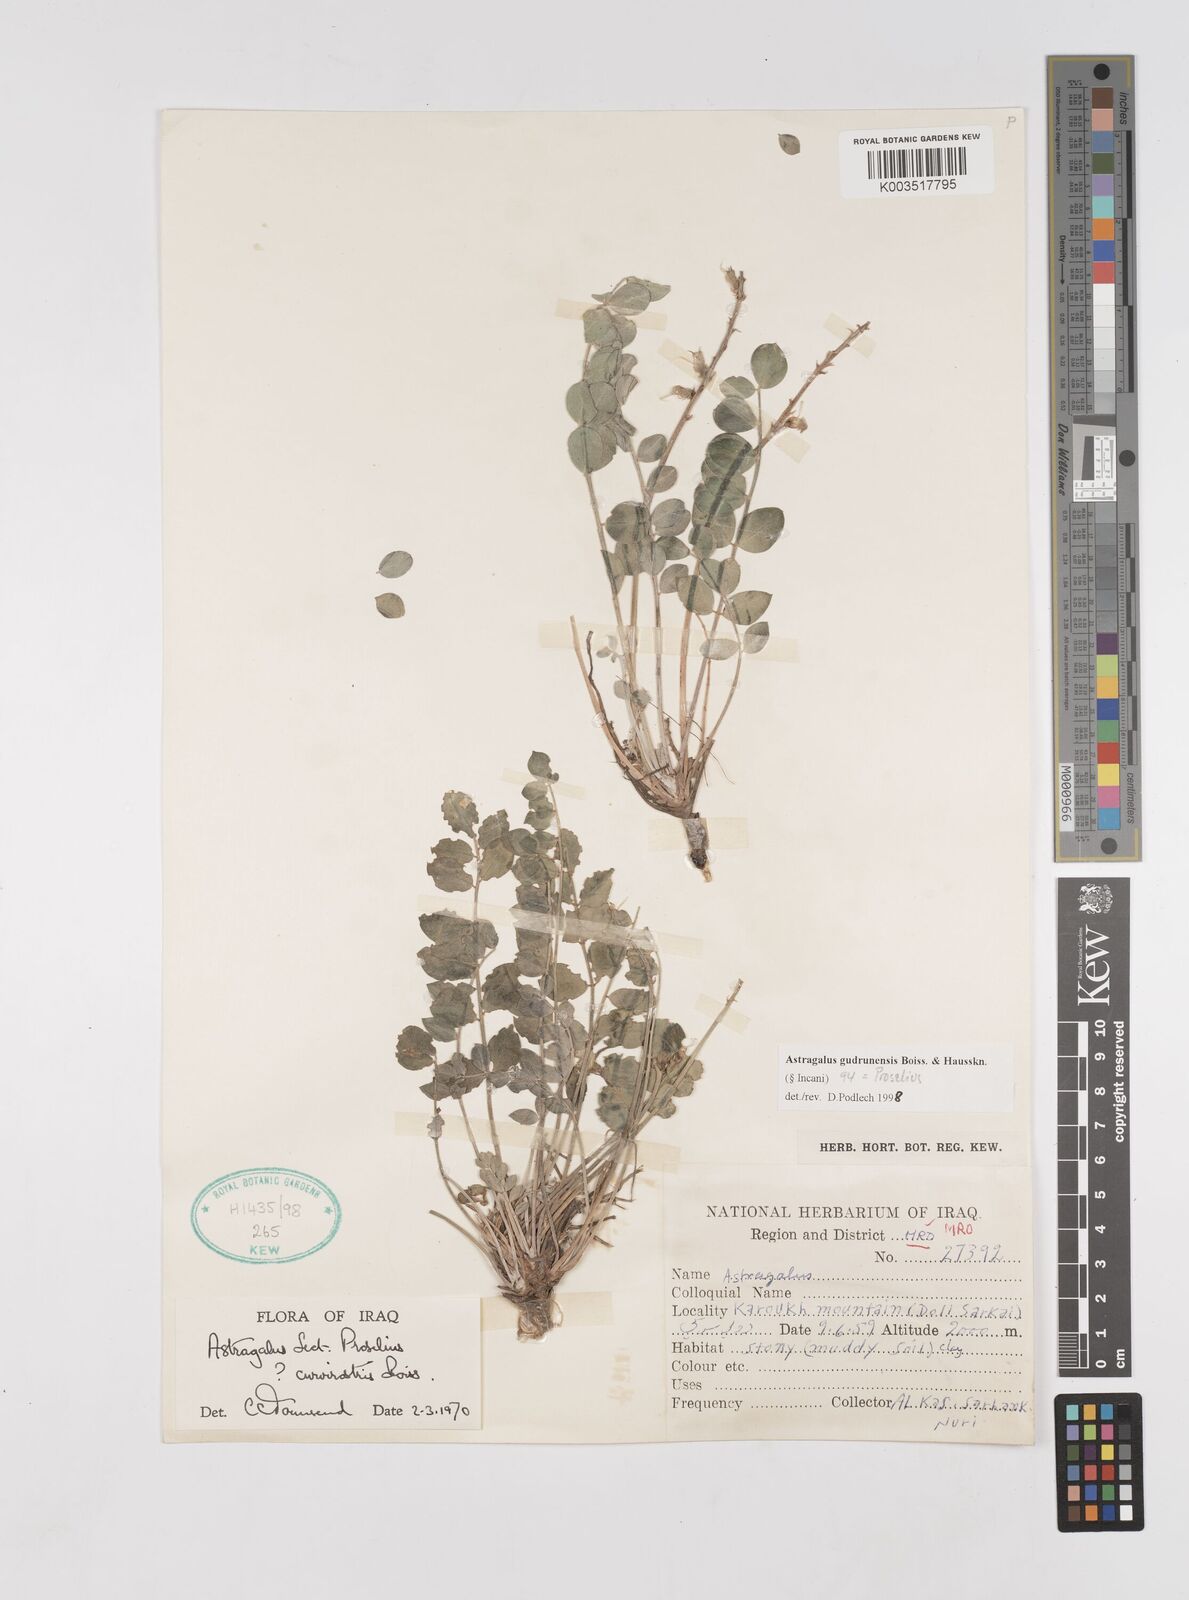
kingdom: Plantae
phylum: Tracheophyta
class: Magnoliopsida
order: Fabales
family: Fabaceae
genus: Astragalus
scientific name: Astragalus gudrunensis
